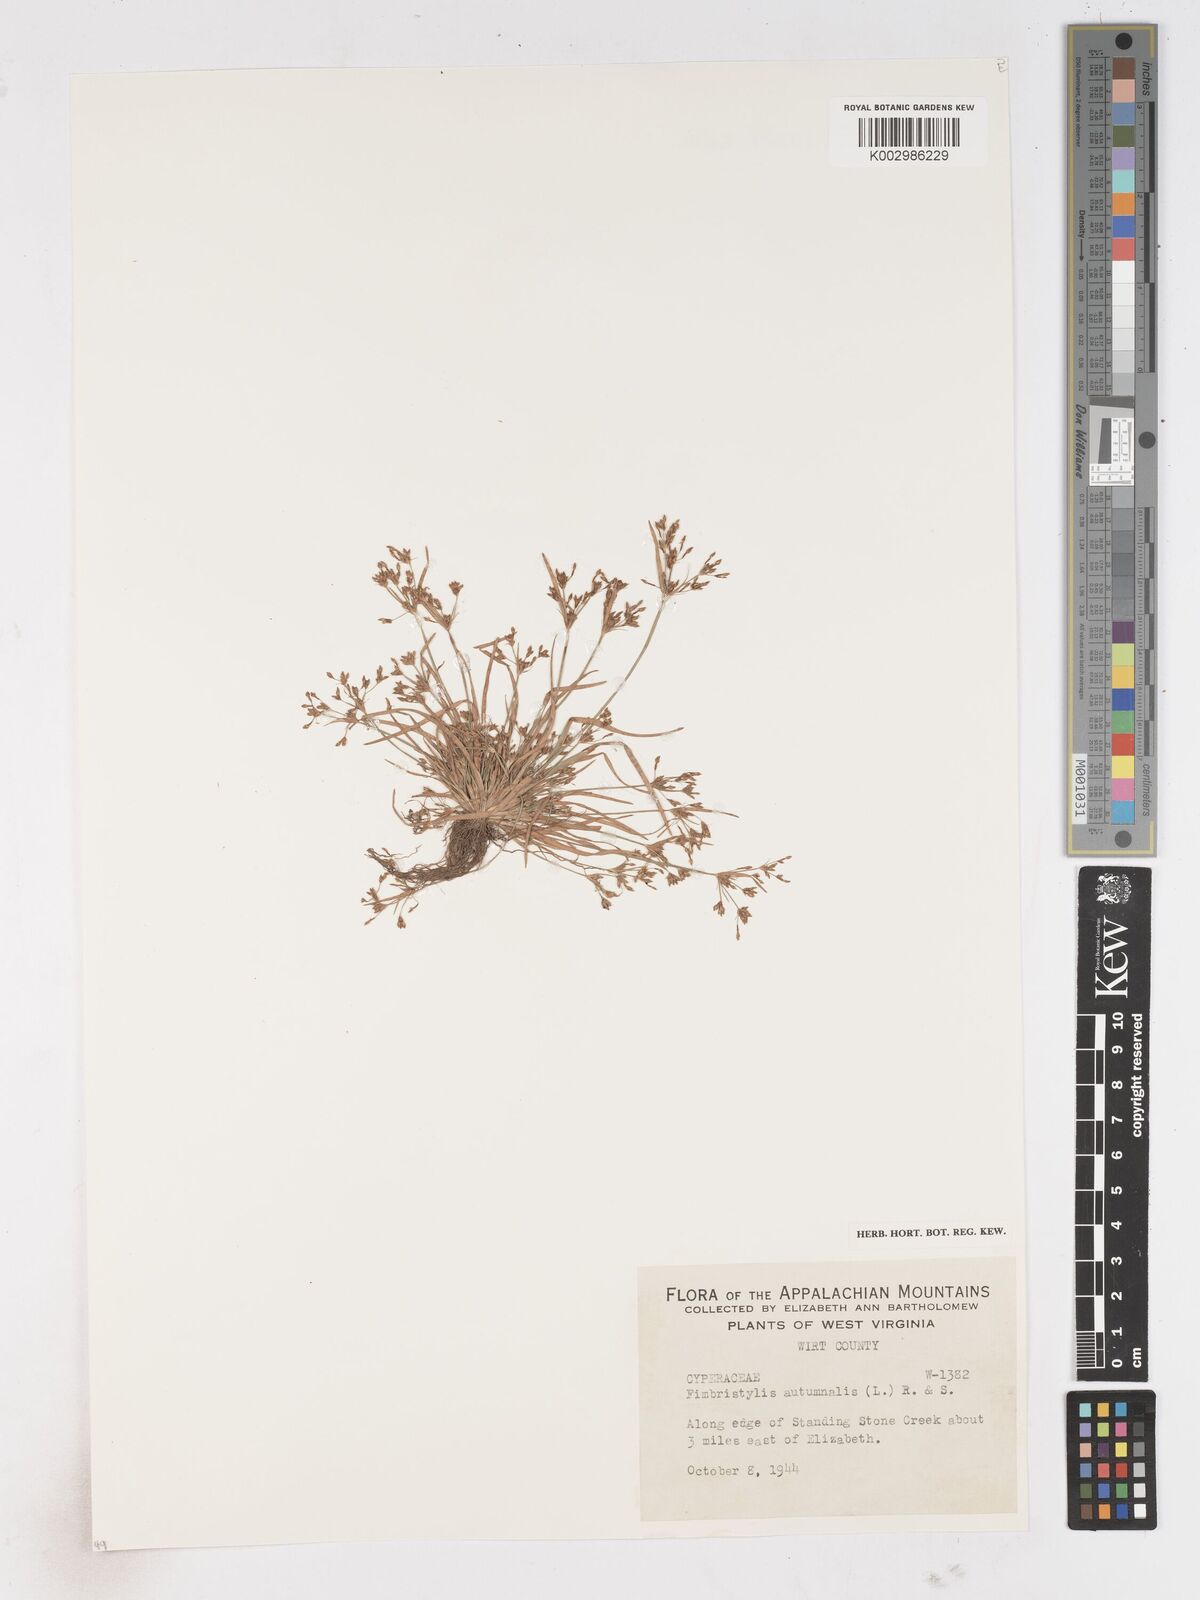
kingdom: Plantae
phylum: Tracheophyta
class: Liliopsida
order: Poales
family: Cyperaceae
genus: Fimbristylis
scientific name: Fimbristylis autumnalis
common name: Slender fimbristylis
